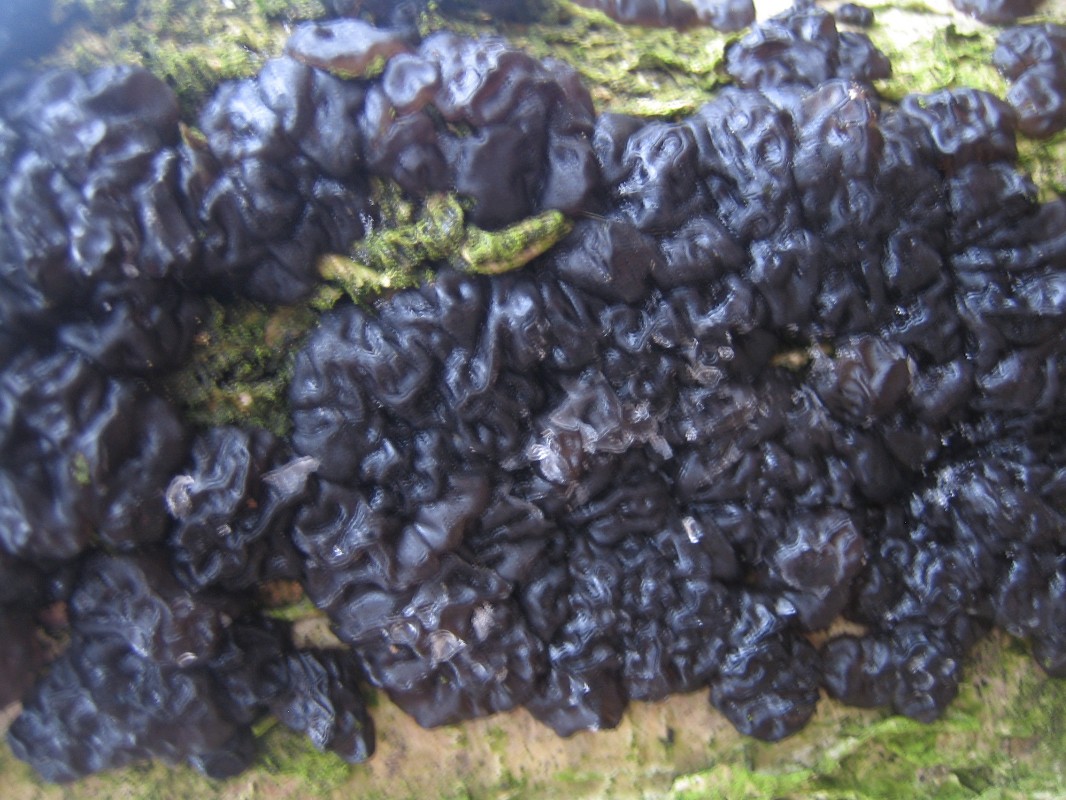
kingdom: Fungi
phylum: Basidiomycota
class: Agaricomycetes
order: Auriculariales
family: Auriculariaceae
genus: Exidia
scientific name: Exidia nigricans
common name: almindelig bævretop
